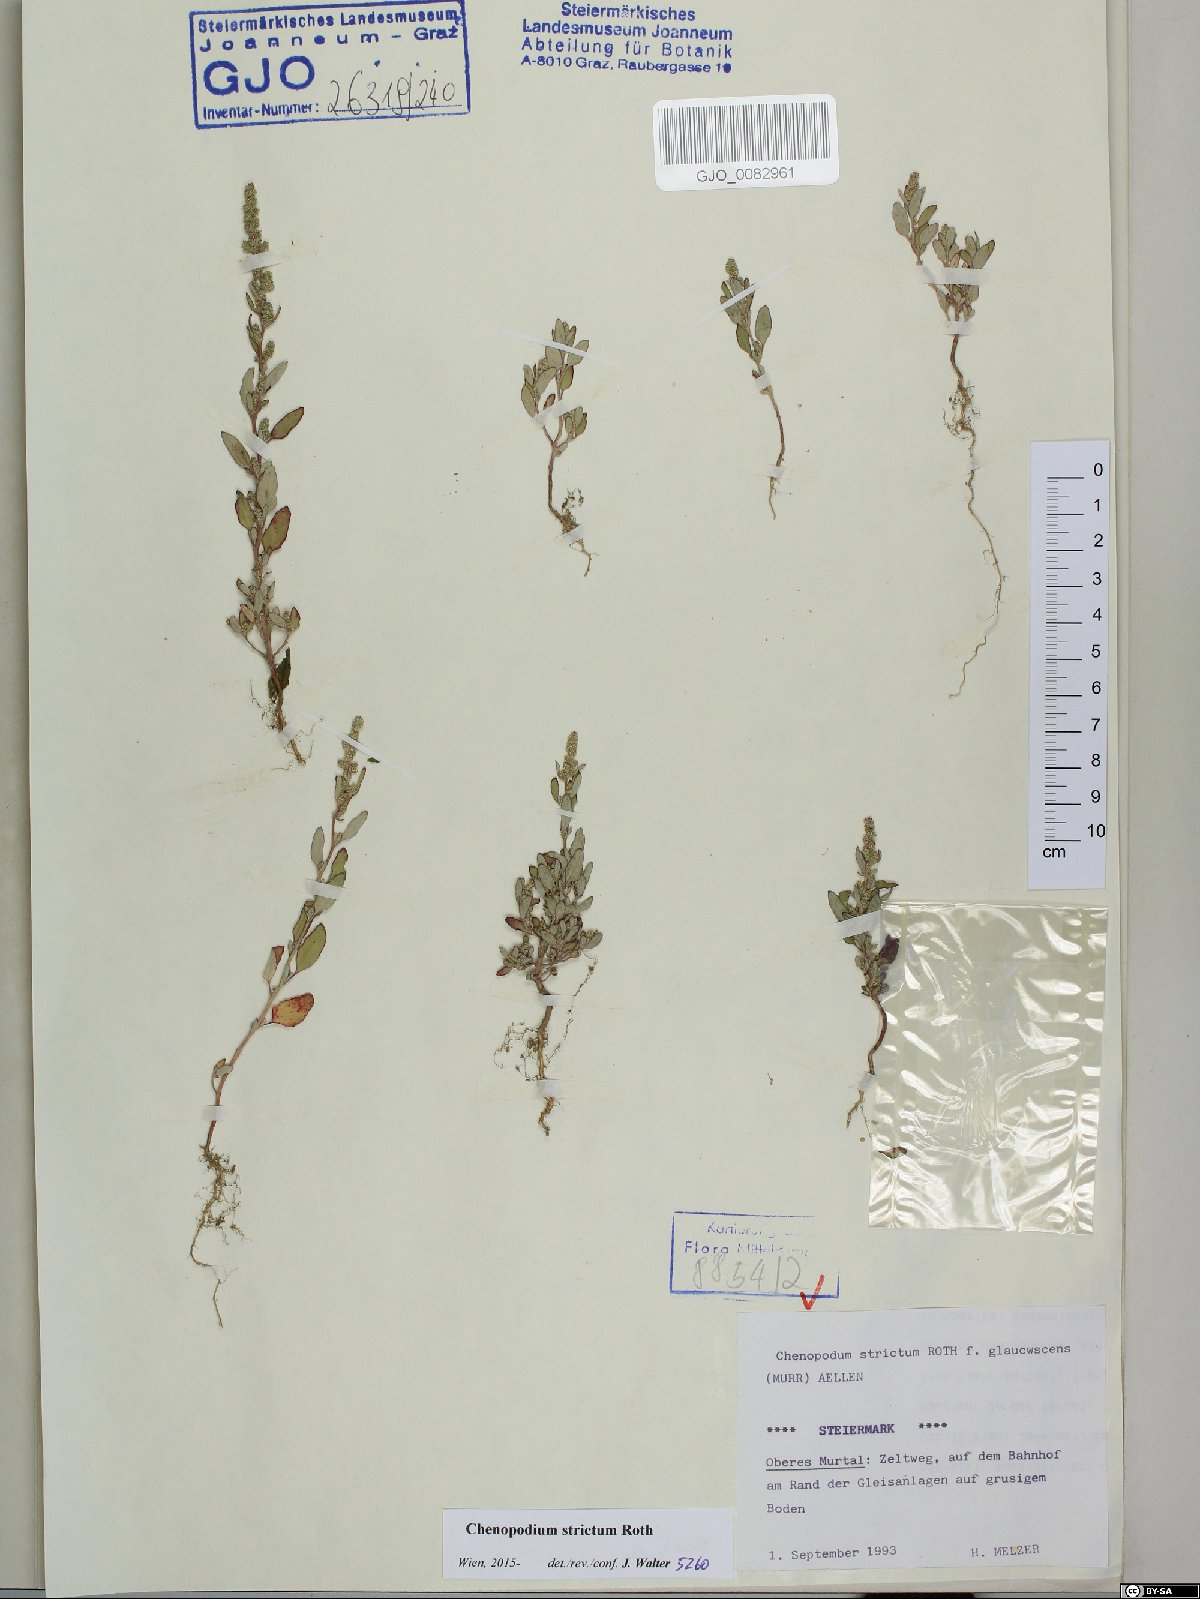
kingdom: Plantae
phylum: Tracheophyta
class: Magnoliopsida
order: Caryophyllales
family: Amaranthaceae
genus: Chenopodium
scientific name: Chenopodium album
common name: Fat-hen
